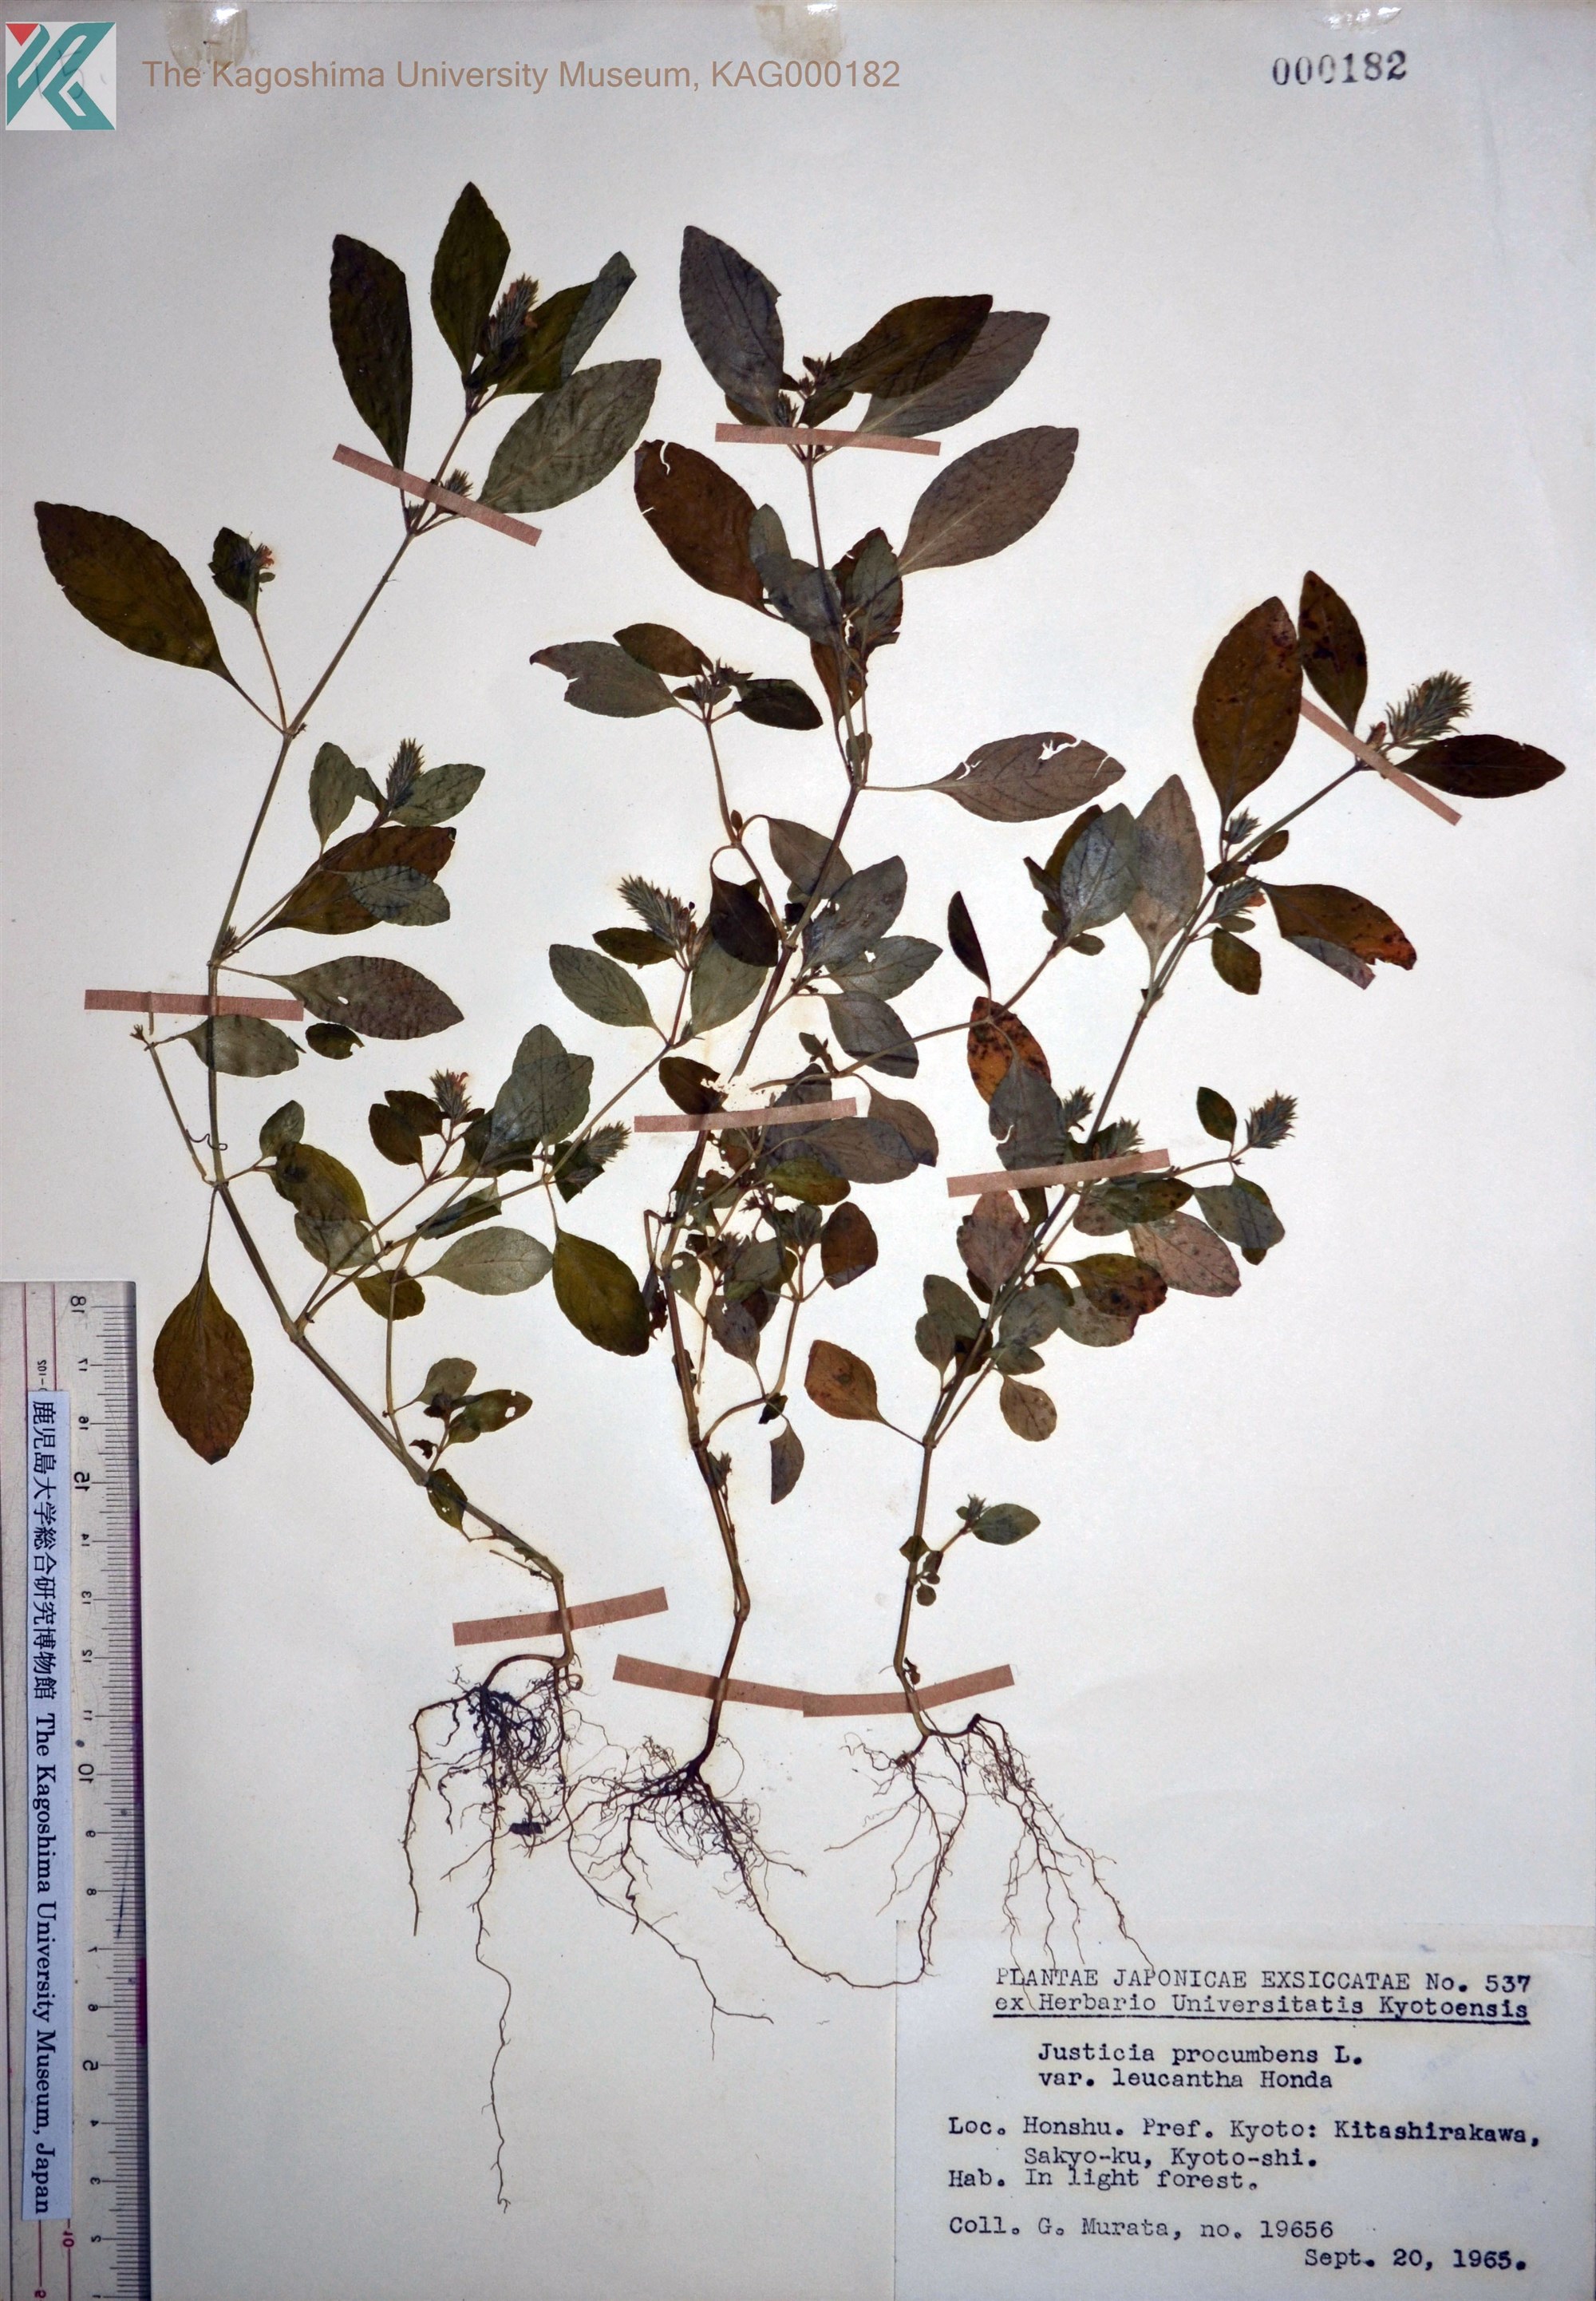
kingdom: Plantae
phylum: Tracheophyta
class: Magnoliopsida
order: Lamiales
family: Acanthaceae
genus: Rostellularia
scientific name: Rostellularia procumbens
